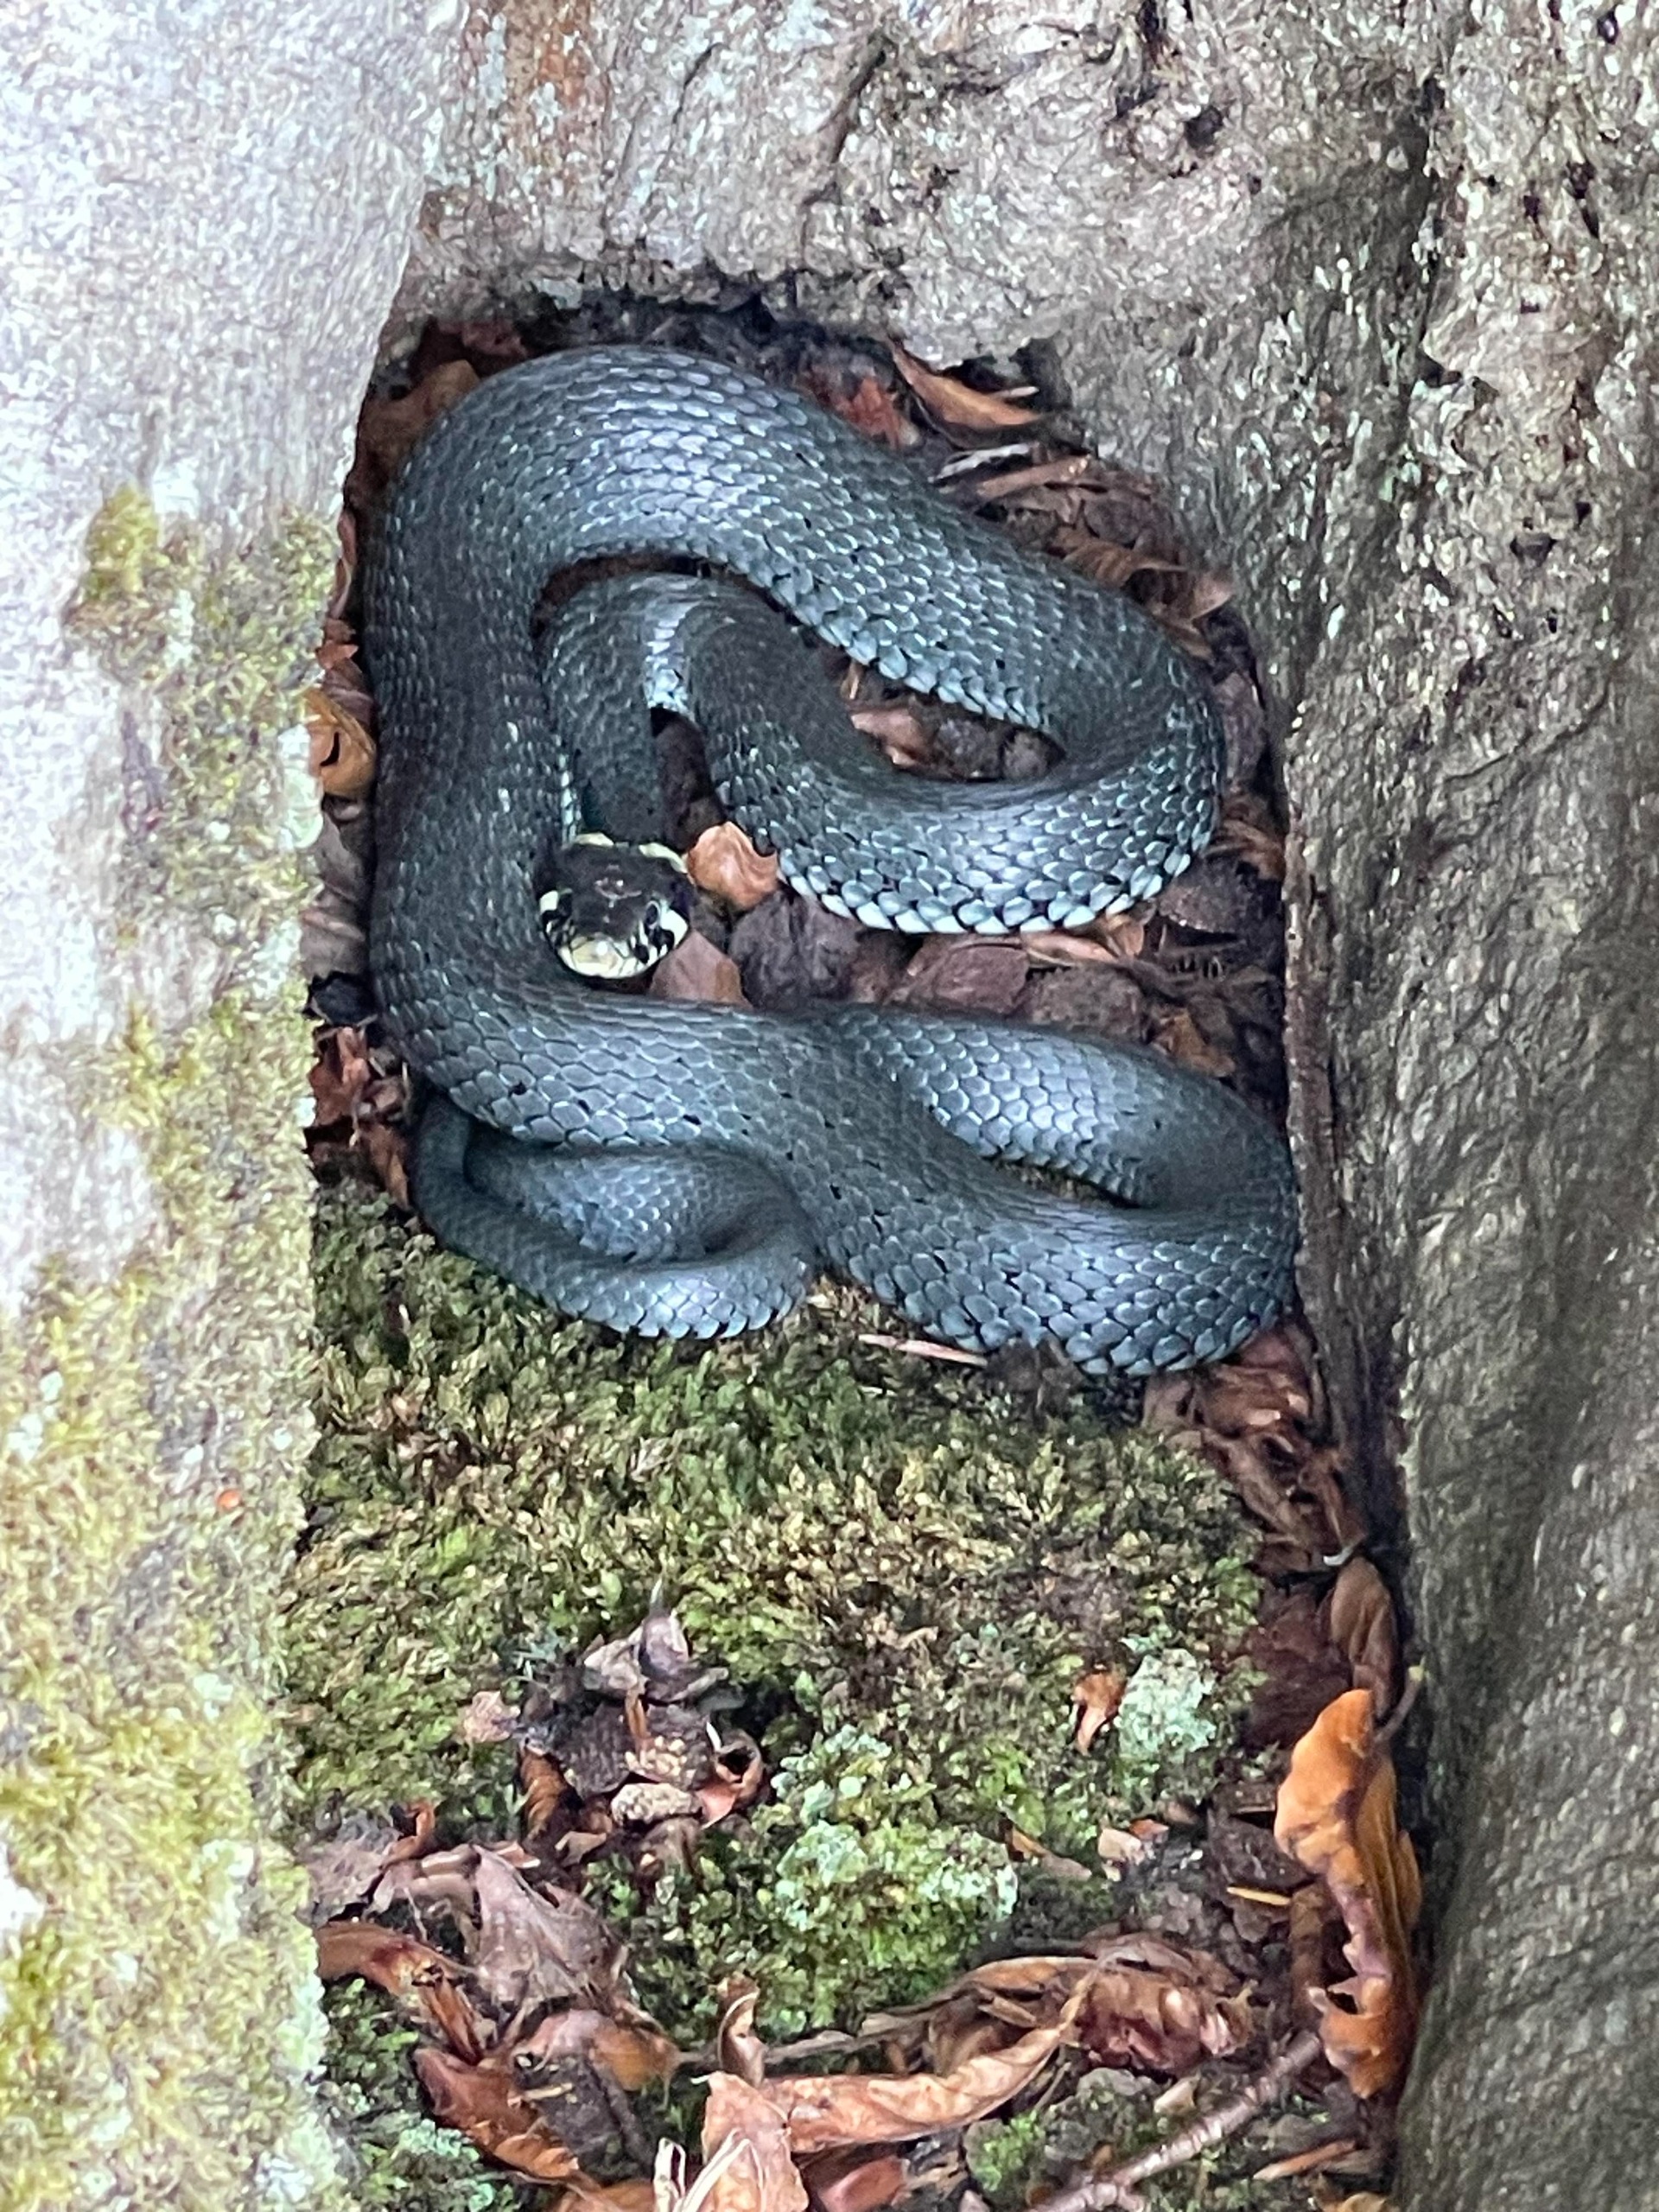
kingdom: Animalia
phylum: Chordata
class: Squamata
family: Colubridae
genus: Natrix
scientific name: Natrix natrix
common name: Snog
